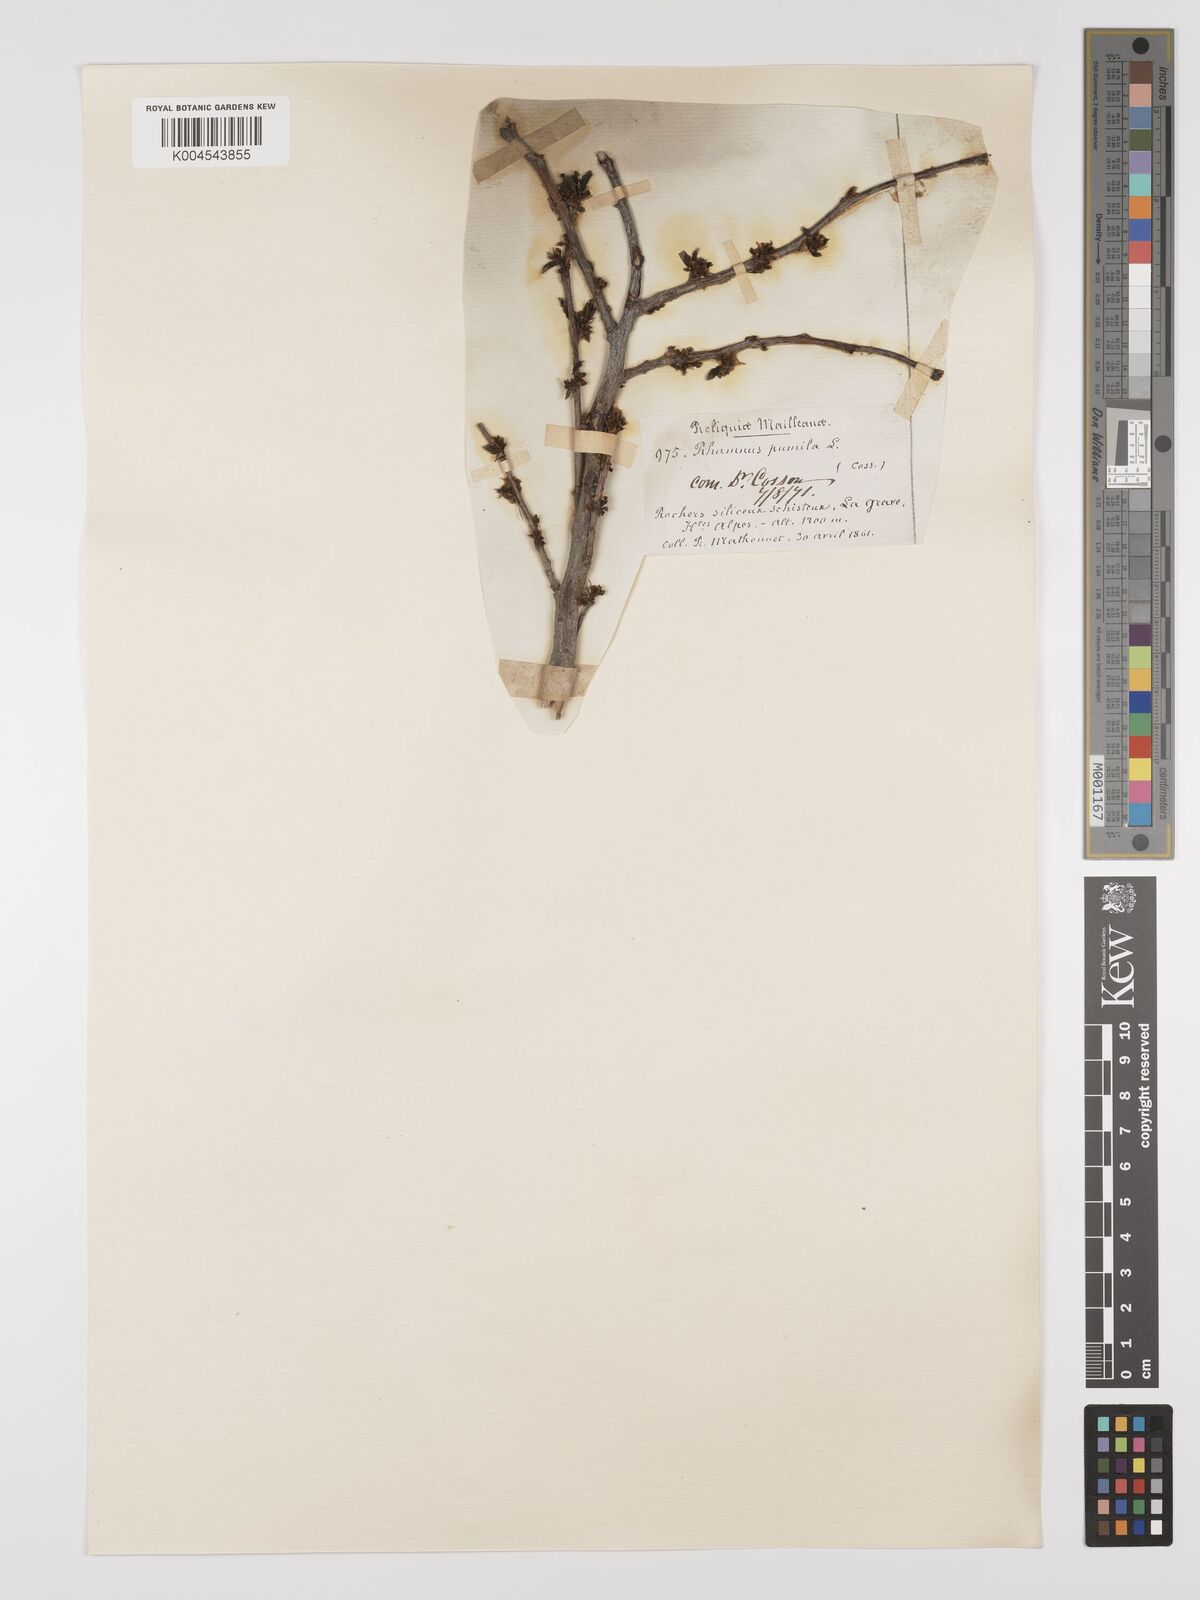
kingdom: Plantae
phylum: Tracheophyta
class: Magnoliopsida
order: Rosales
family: Rhamnaceae
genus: Rhamnus
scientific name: Rhamnus
